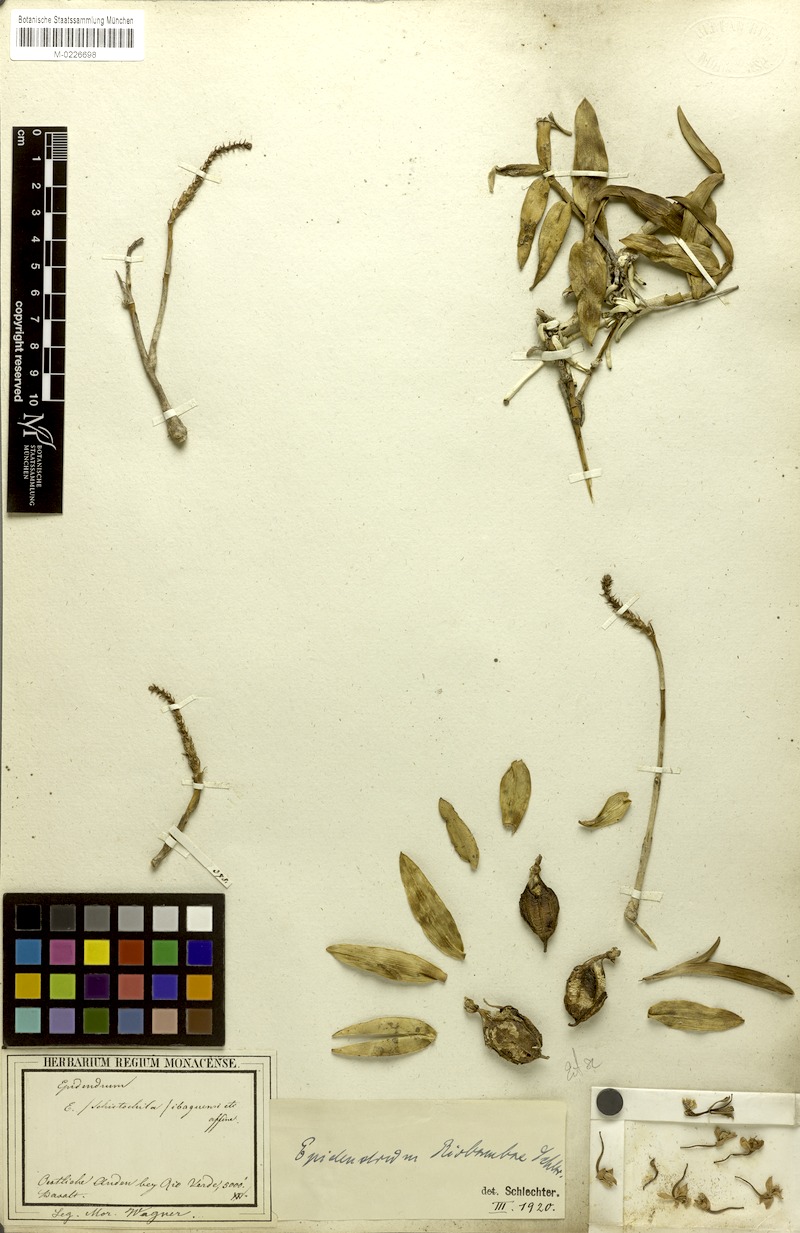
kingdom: Plantae
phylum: Tracheophyta
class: Liliopsida
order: Asparagales
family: Orchidaceae
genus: Epidendrum
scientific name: Epidendrum riobambae
